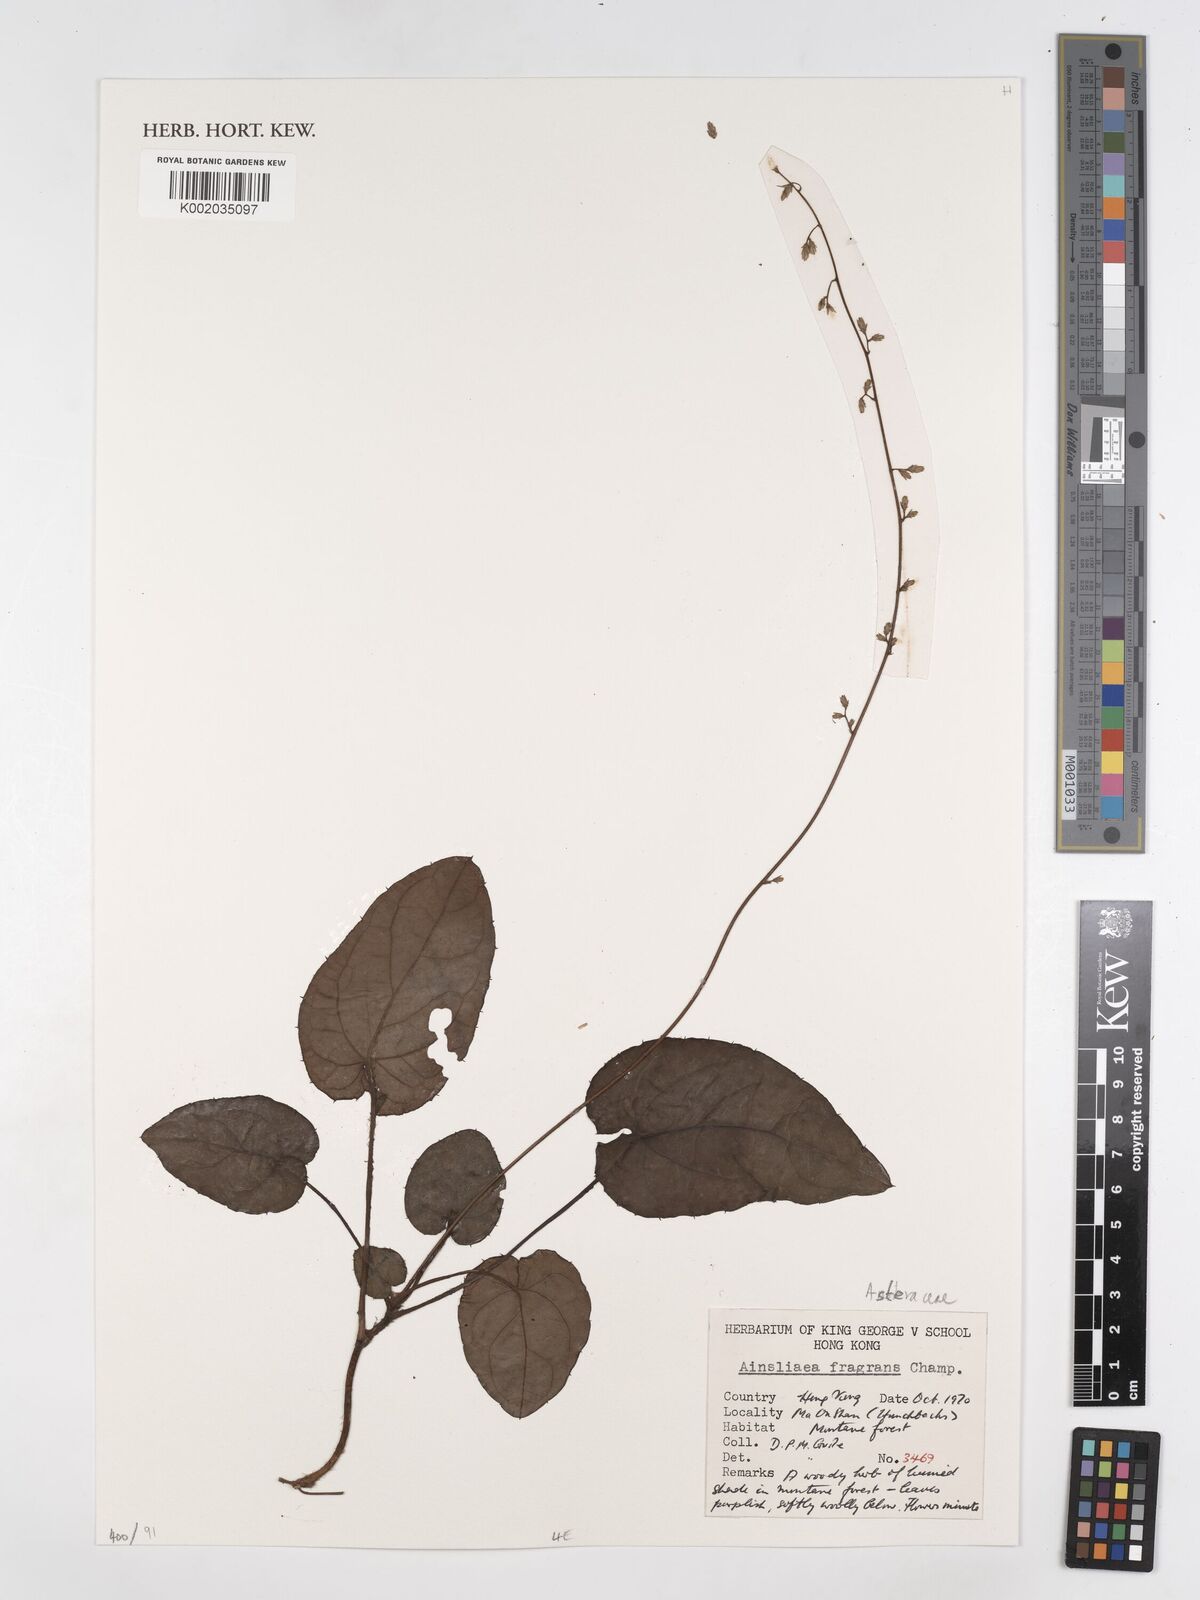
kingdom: Plantae
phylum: Tracheophyta
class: Magnoliopsida
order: Asterales
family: Asteraceae
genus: Ainsliaea
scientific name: Ainsliaea fragrans
